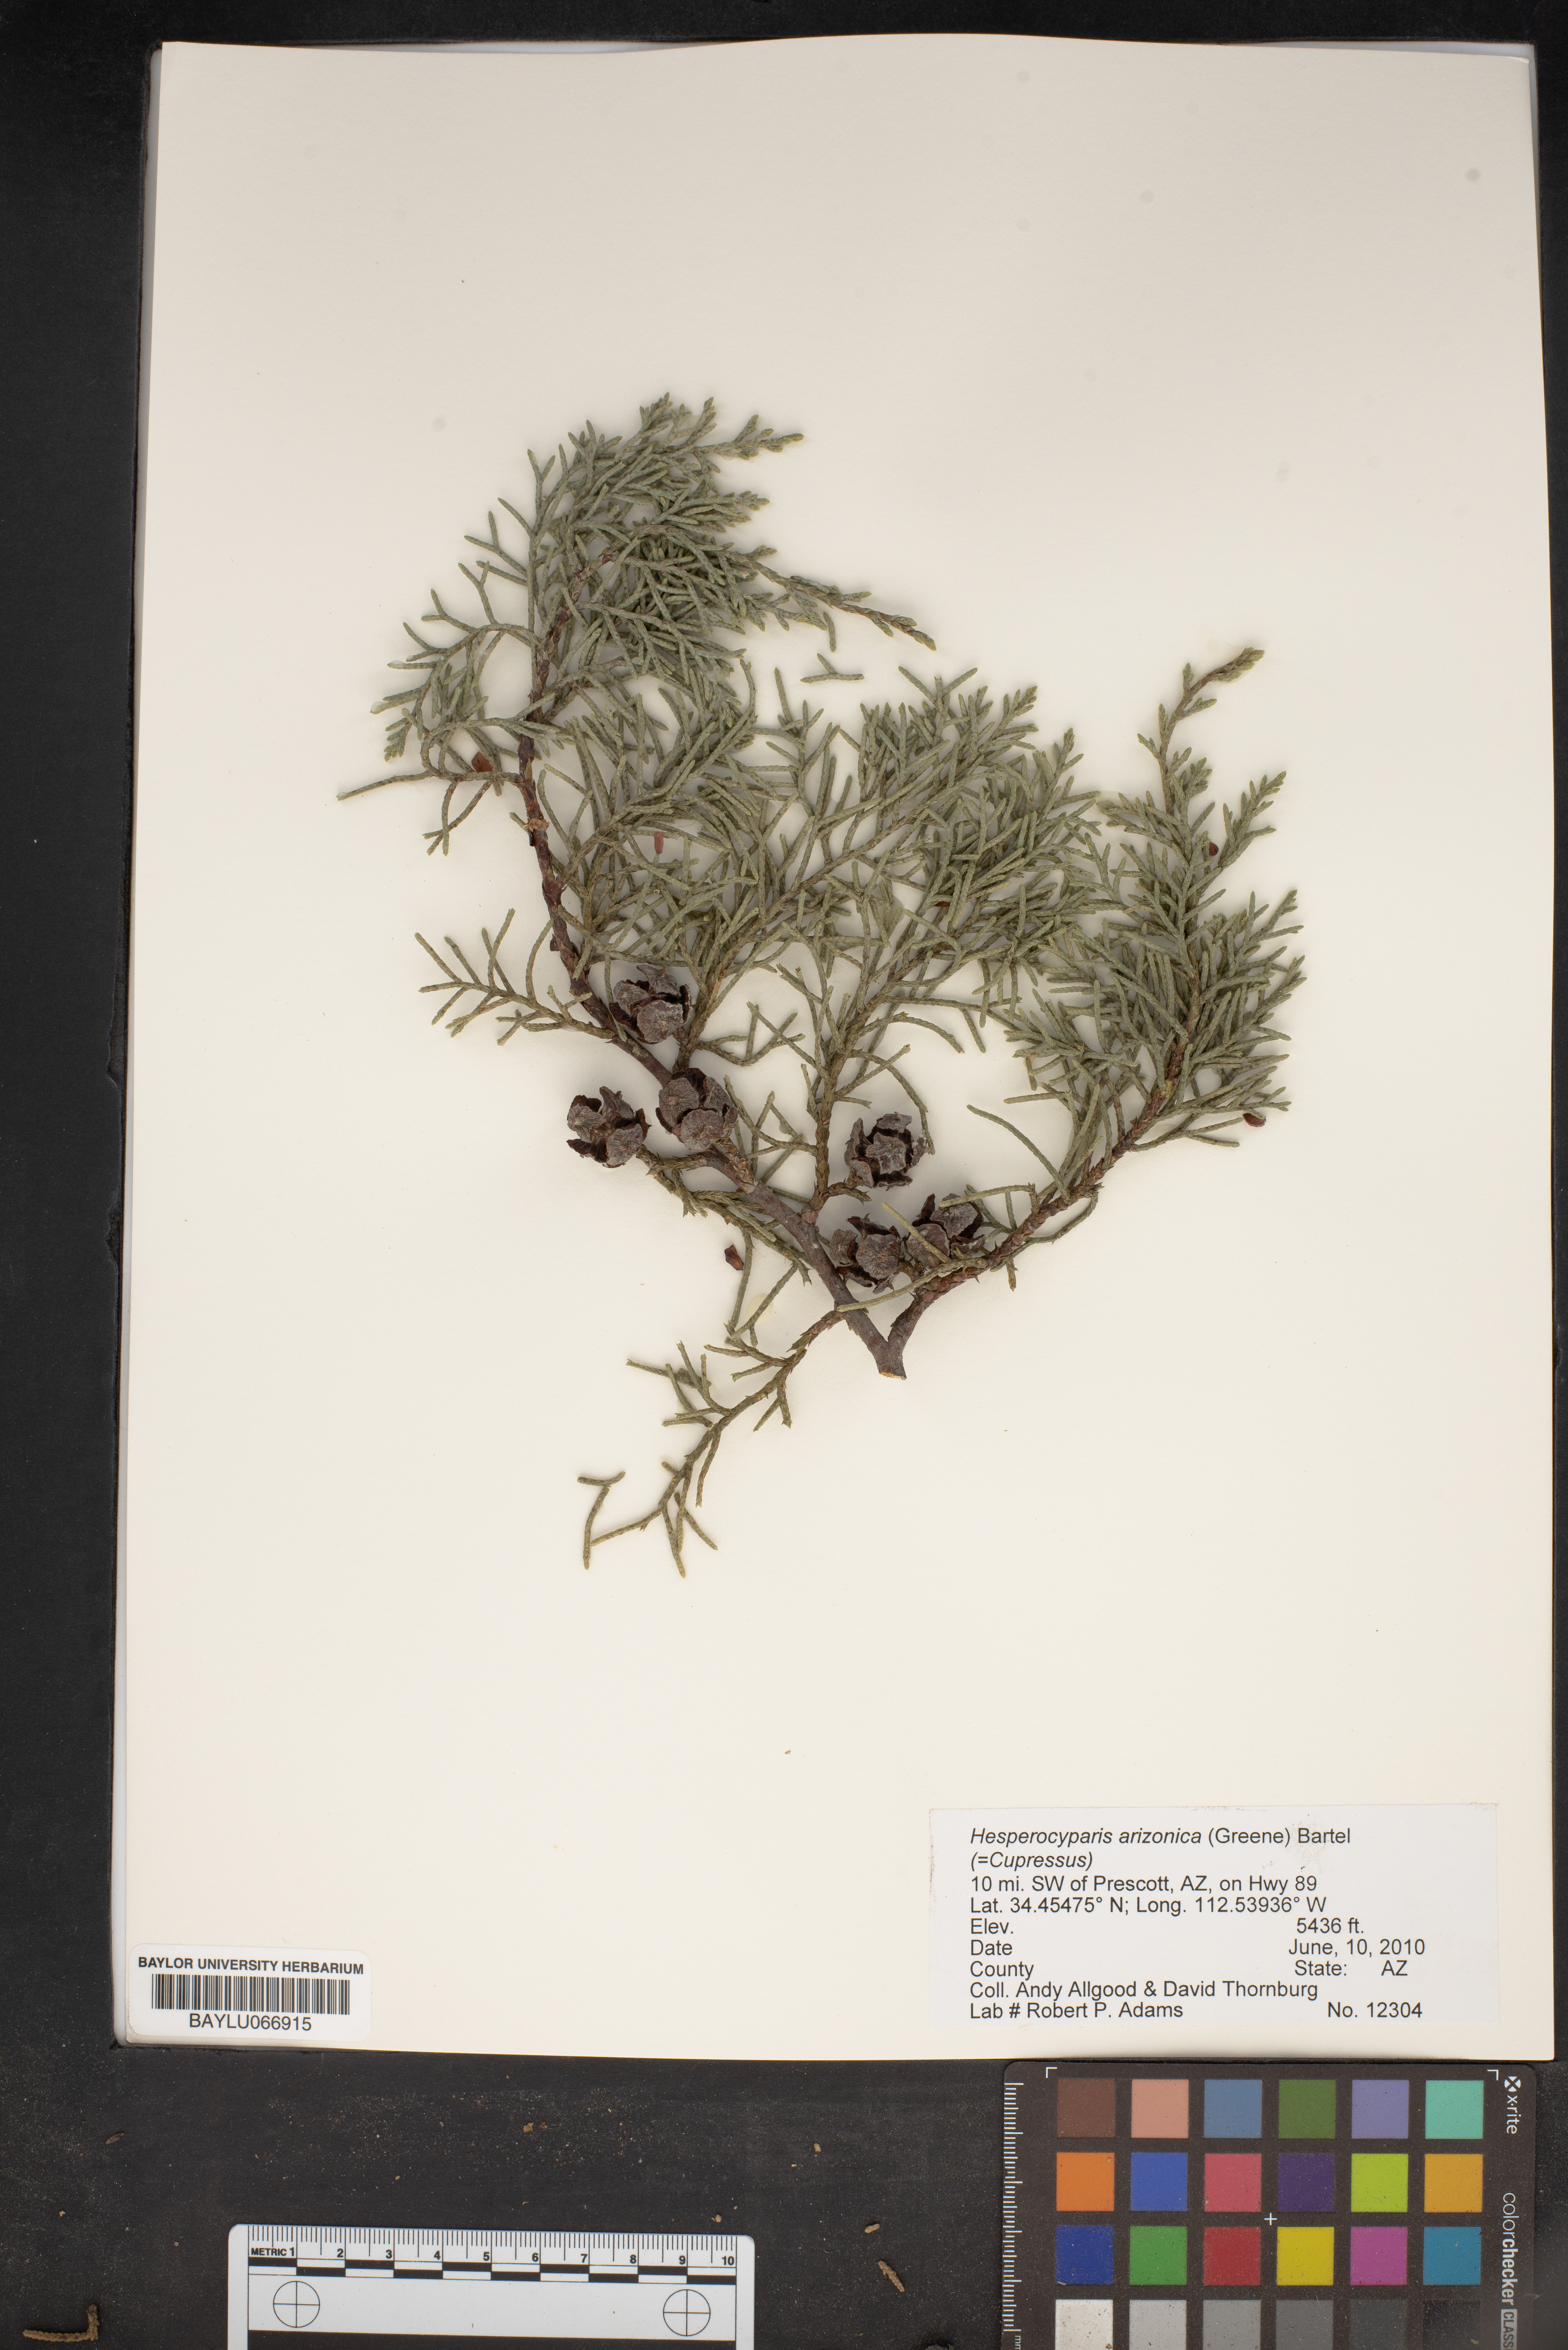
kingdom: Plantae
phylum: Tracheophyta
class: Pinopsida
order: Pinales
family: Cupressaceae
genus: Cupressus
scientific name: Cupressus arizonica
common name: Arizona cypress
